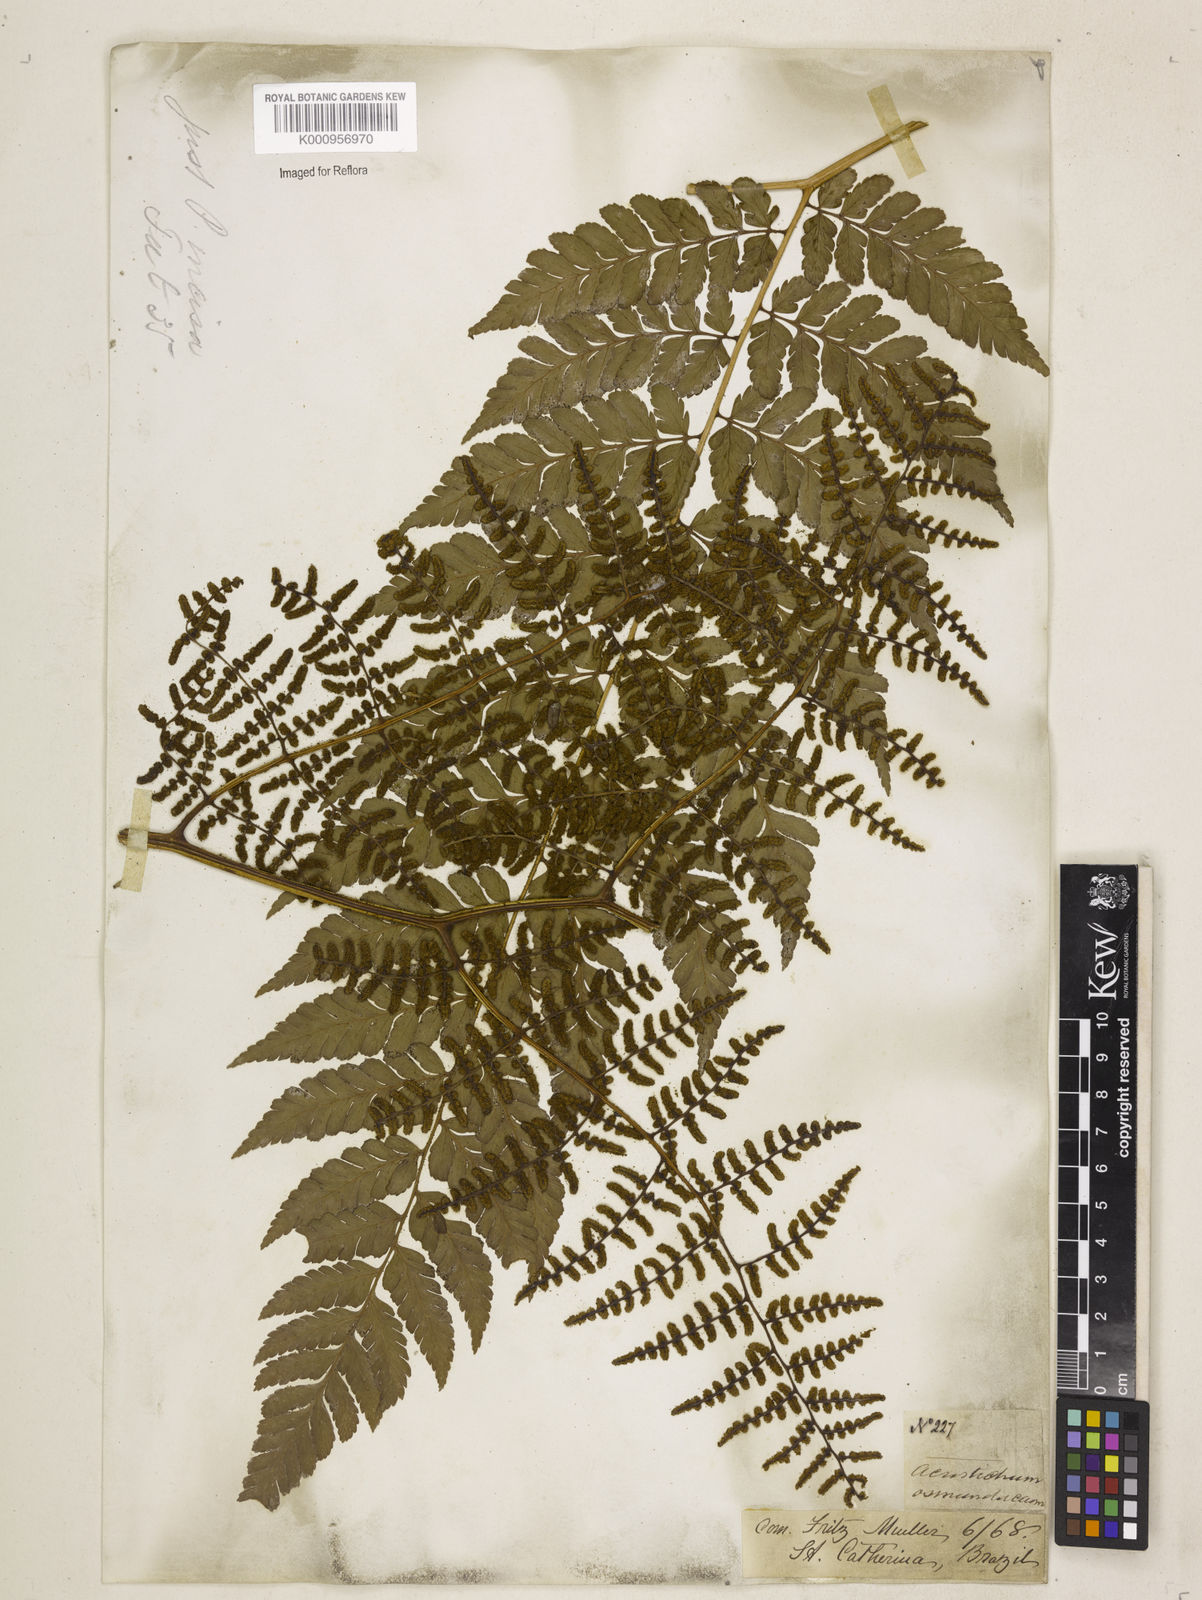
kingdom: Plantae
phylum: Tracheophyta
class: Polypodiopsida
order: Polypodiales
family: Dryopteridaceae
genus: Polybotrya
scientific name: Polybotrya osmundacea
